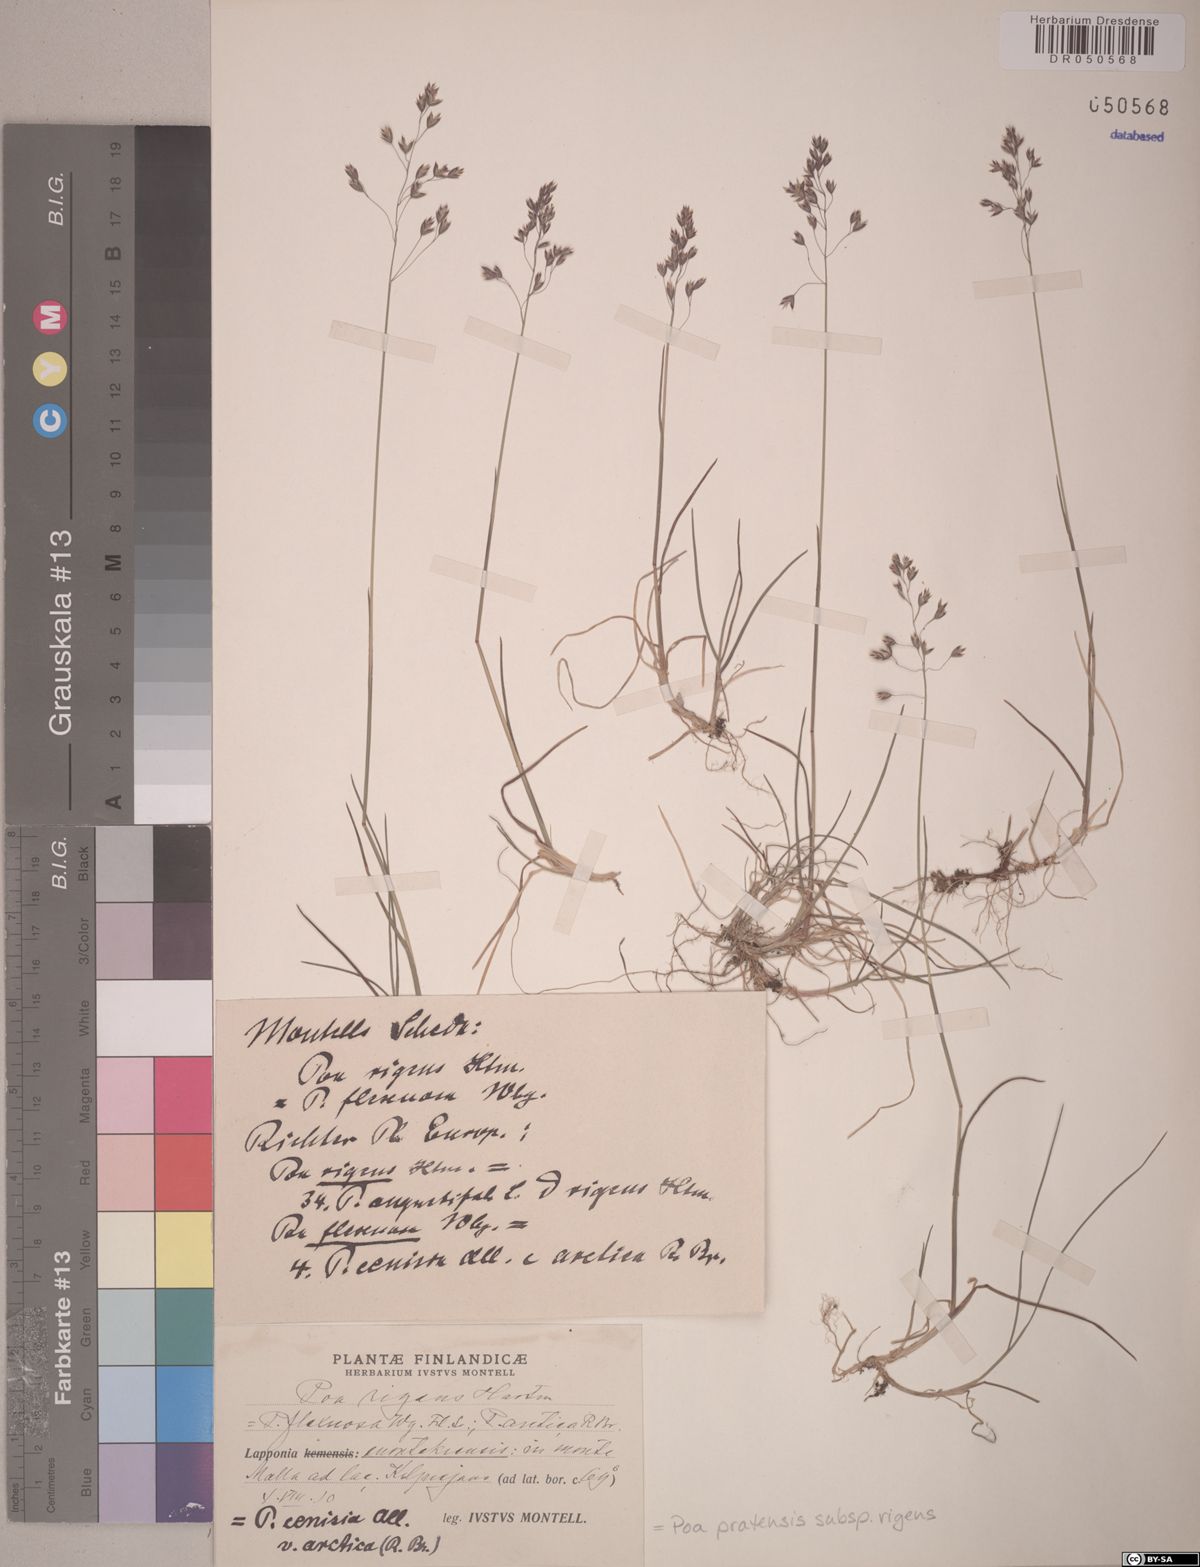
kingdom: Plantae
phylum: Tracheophyta
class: Liliopsida
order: Poales
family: Poaceae
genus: Poa
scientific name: Poa alpigena
